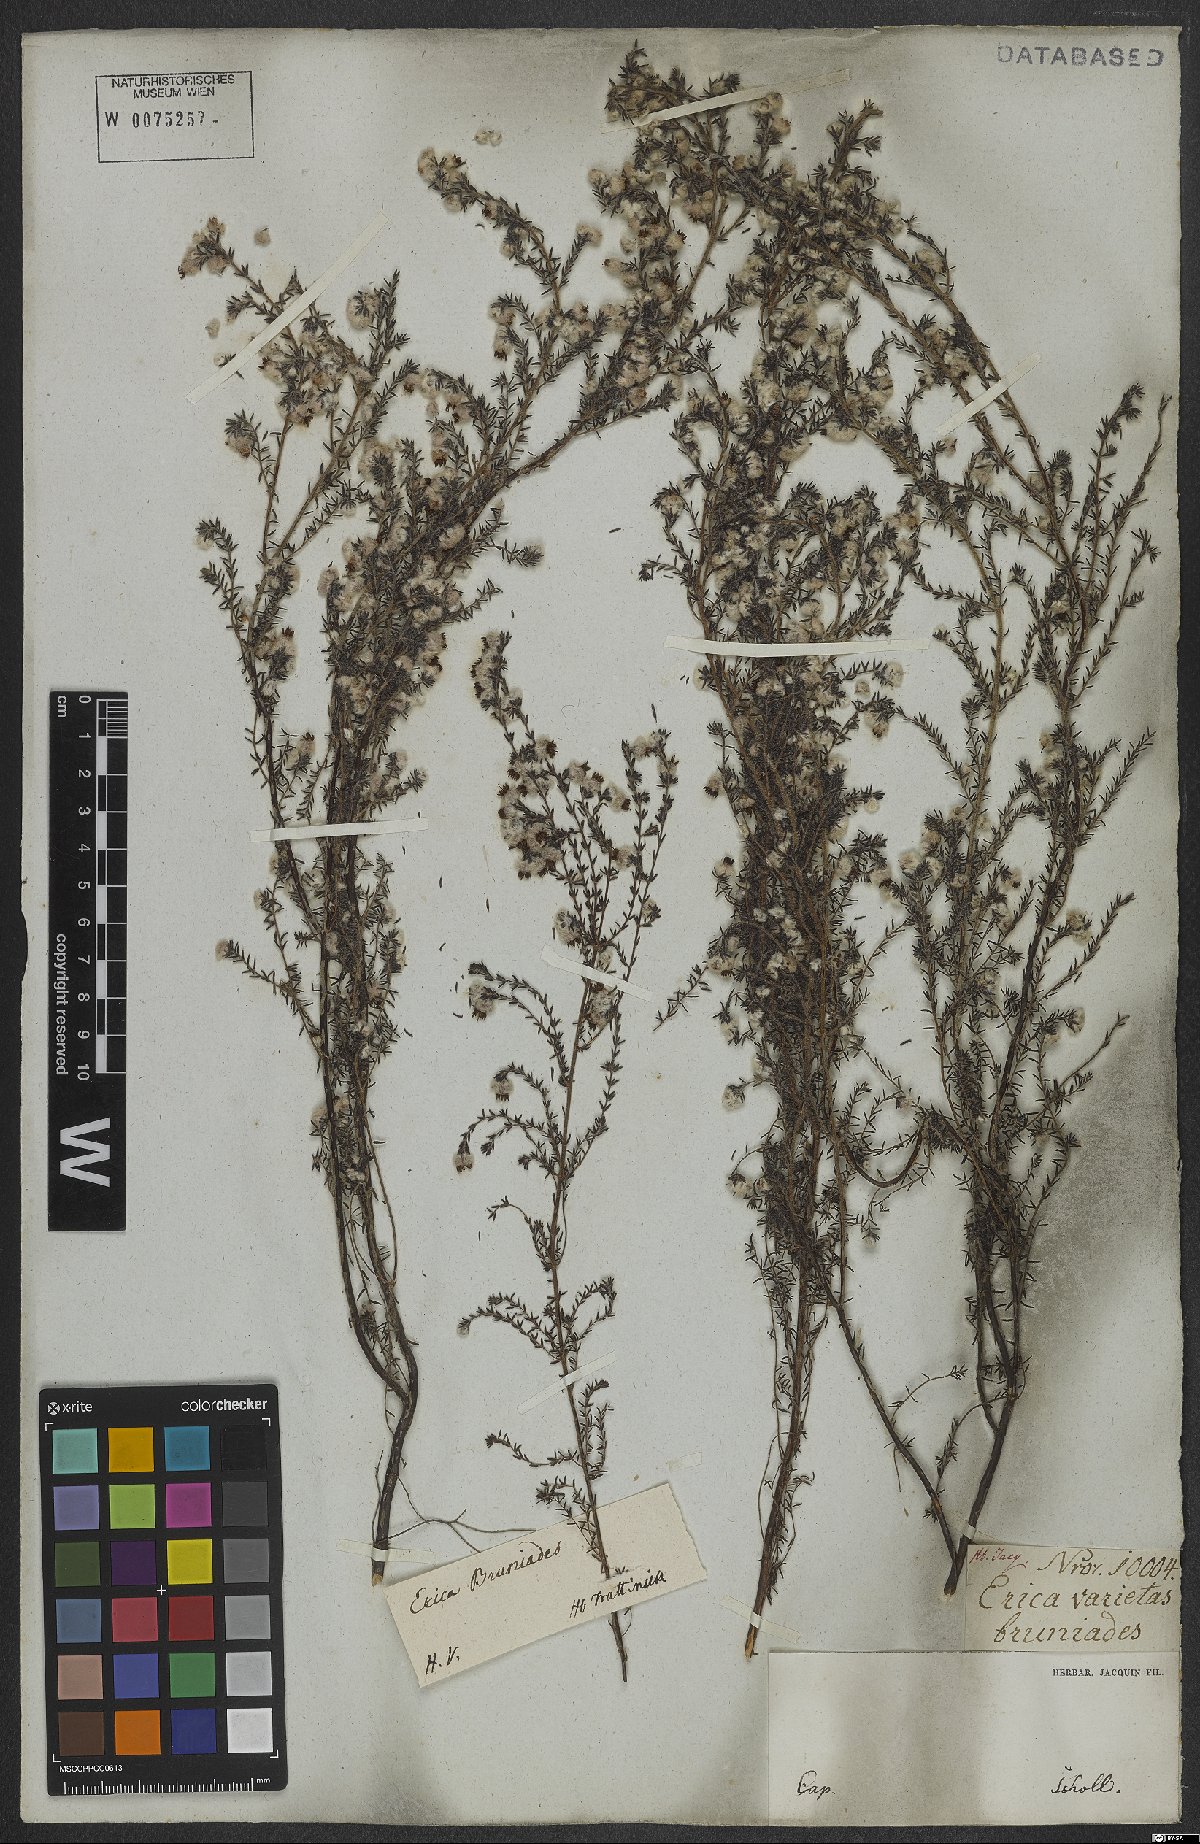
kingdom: Plantae
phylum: Tracheophyta
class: Magnoliopsida
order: Ericales
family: Ericaceae
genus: Erica
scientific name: Erica bruniades
